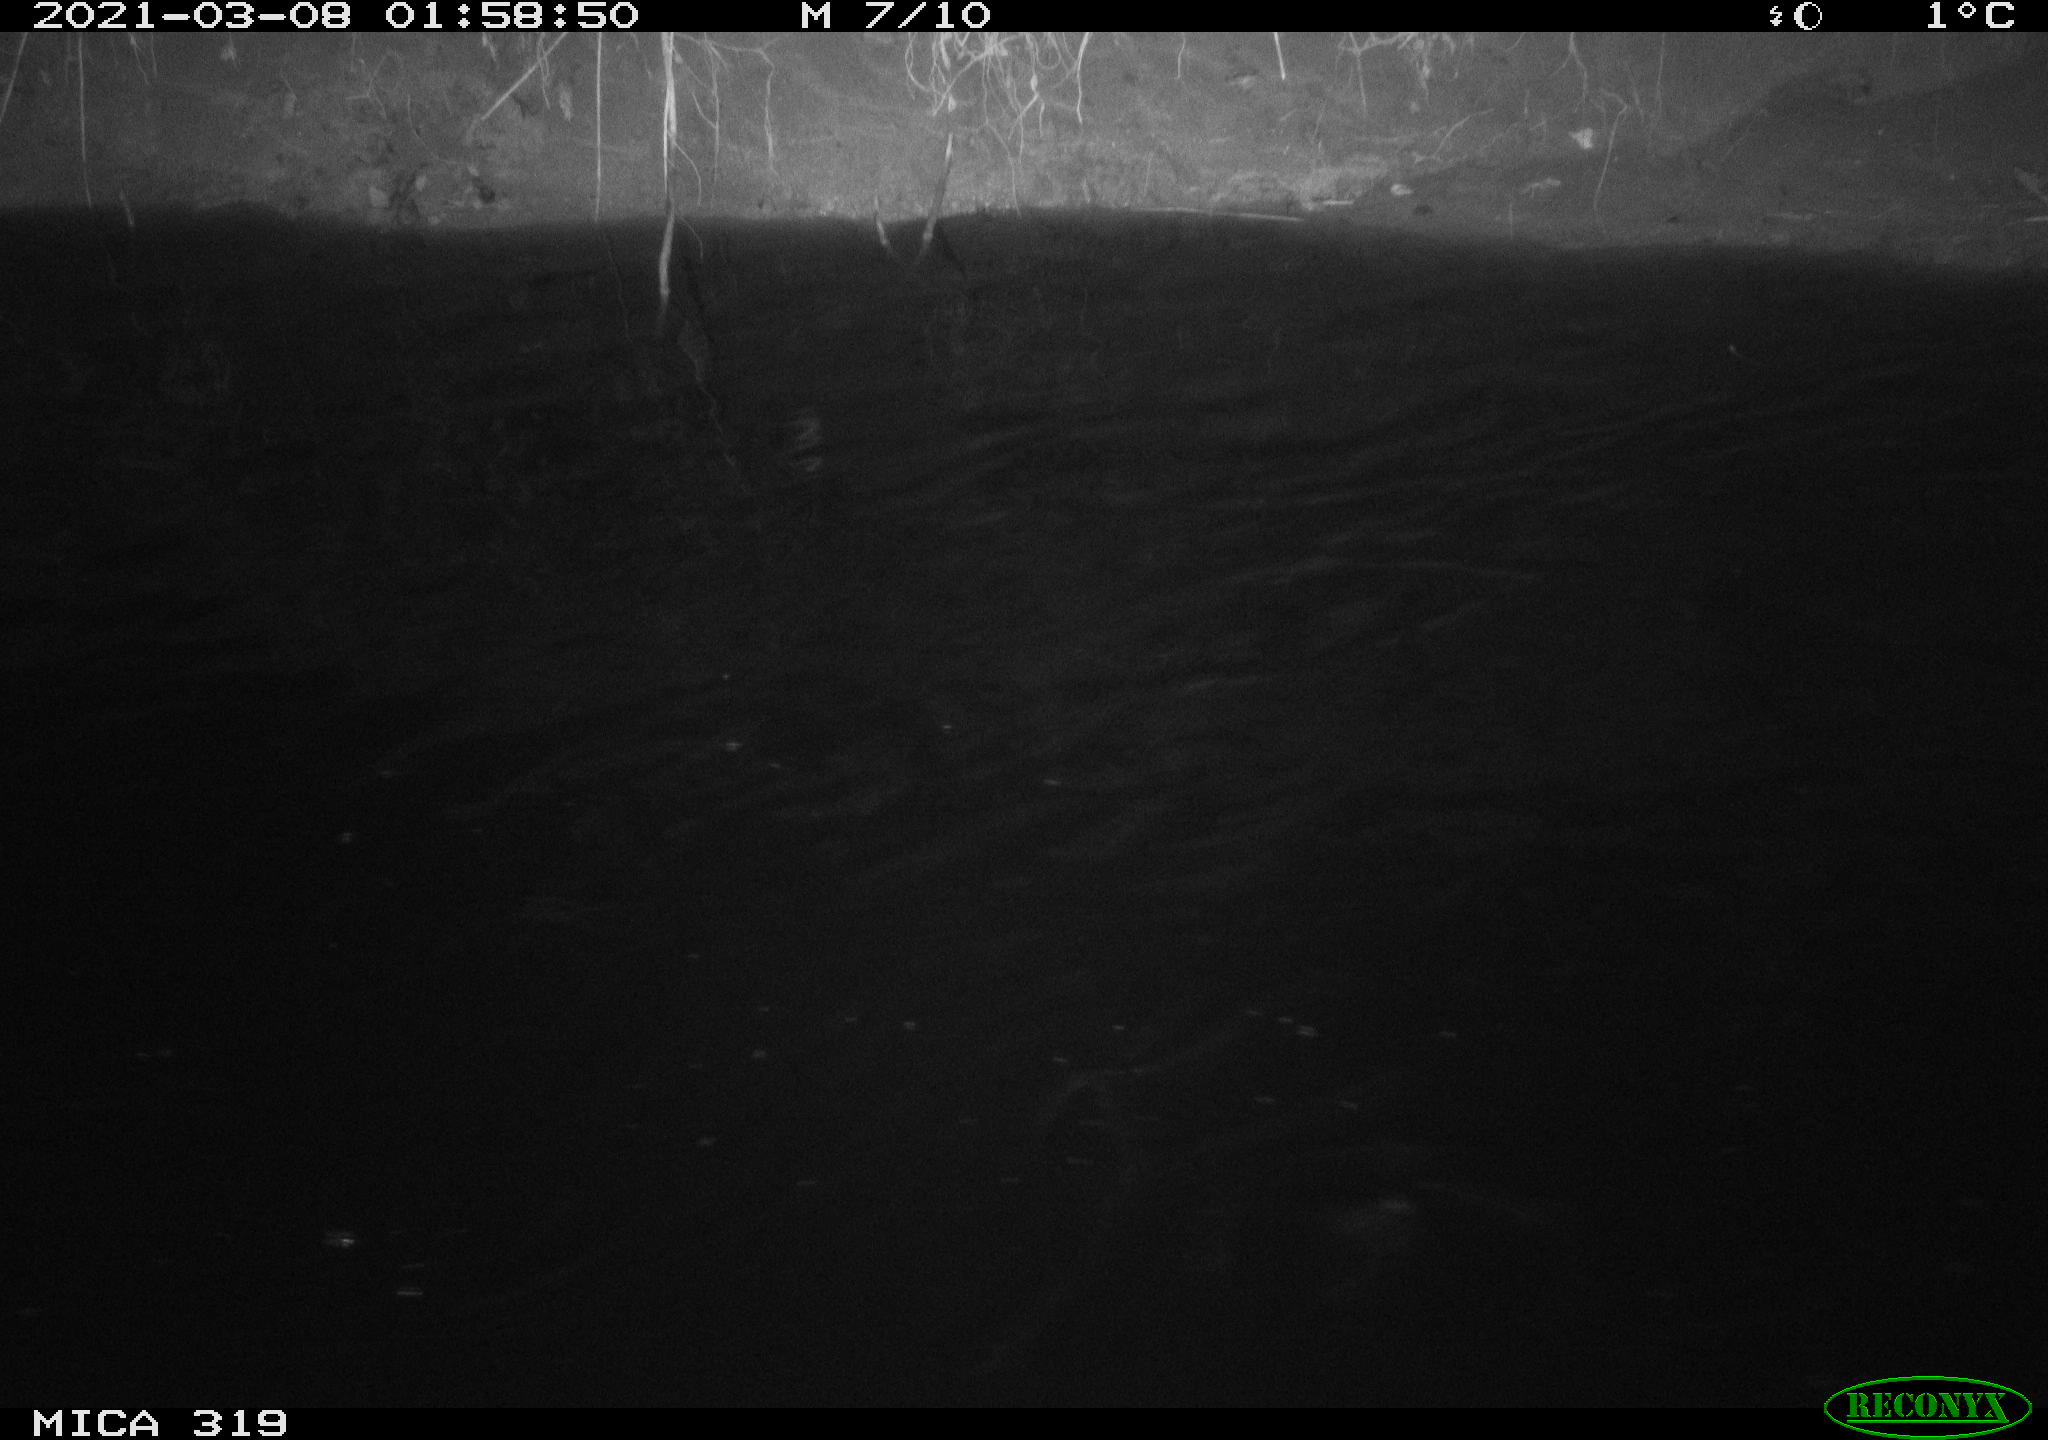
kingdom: Animalia
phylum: Chordata
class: Aves
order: Anseriformes
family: Anatidae
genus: Anas
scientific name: Anas platyrhynchos
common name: Mallard
